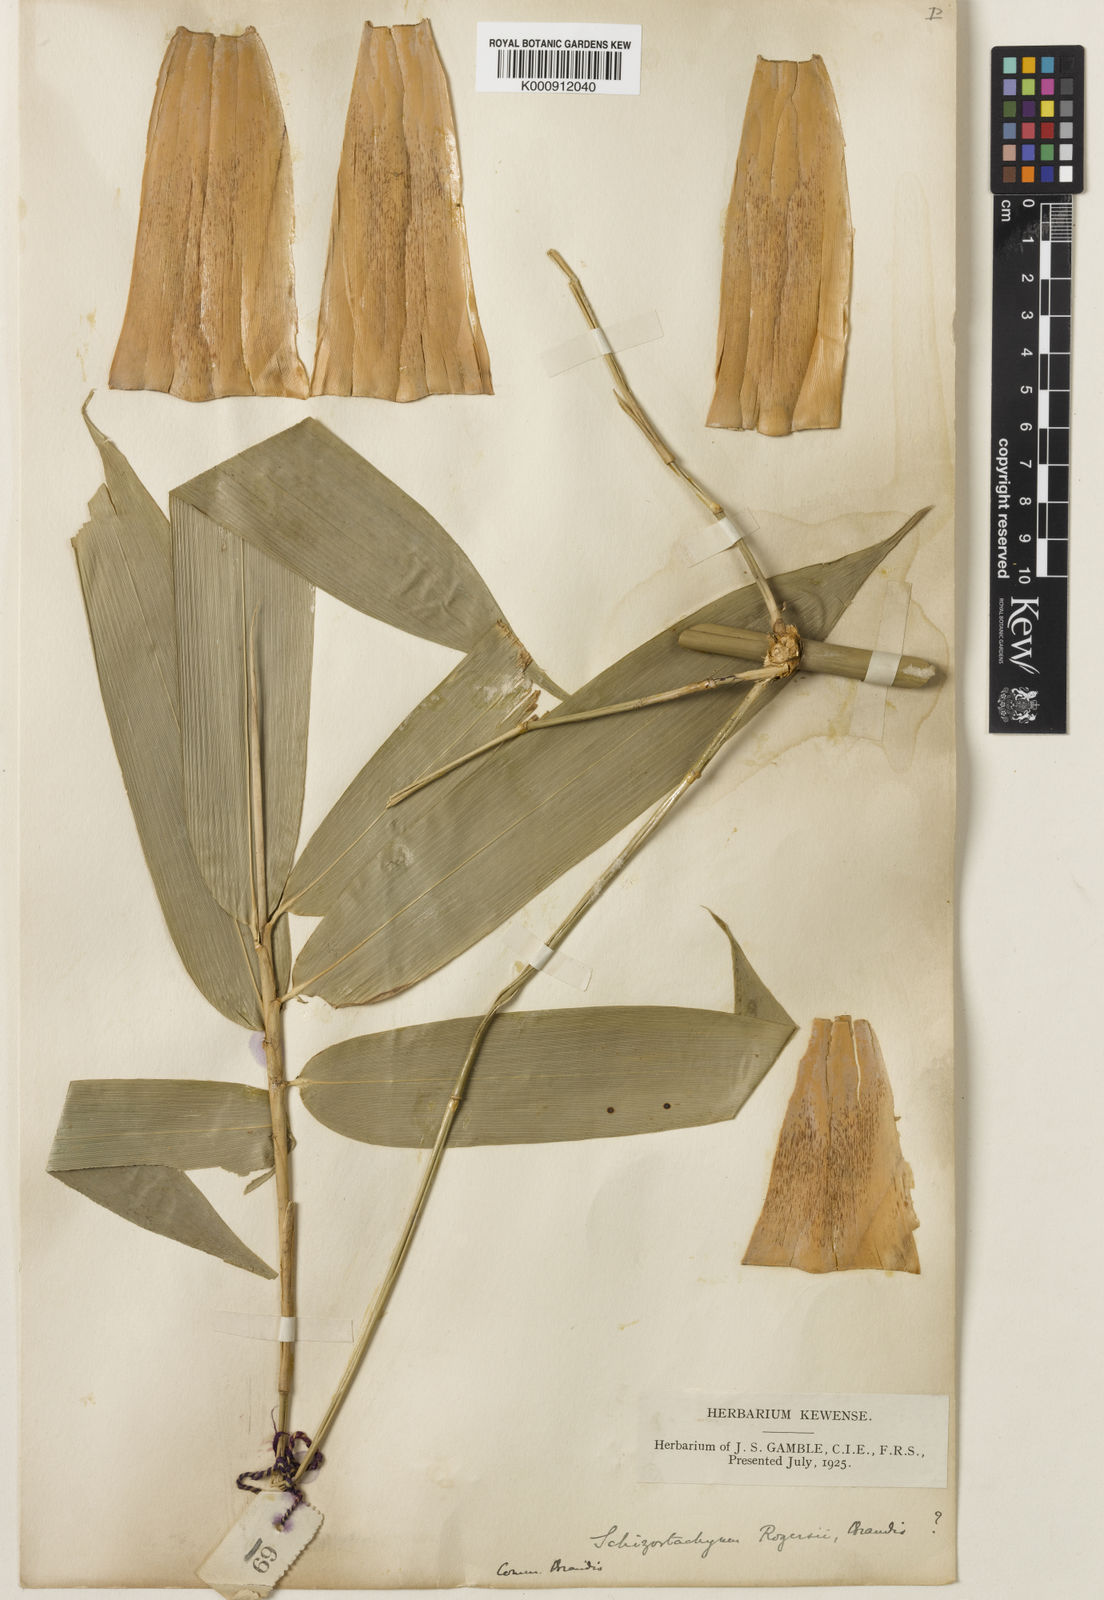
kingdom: Plantae
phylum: Tracheophyta
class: Liliopsida
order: Poales
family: Poaceae
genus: Schizostachyum
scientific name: Schizostachyum rogersii
